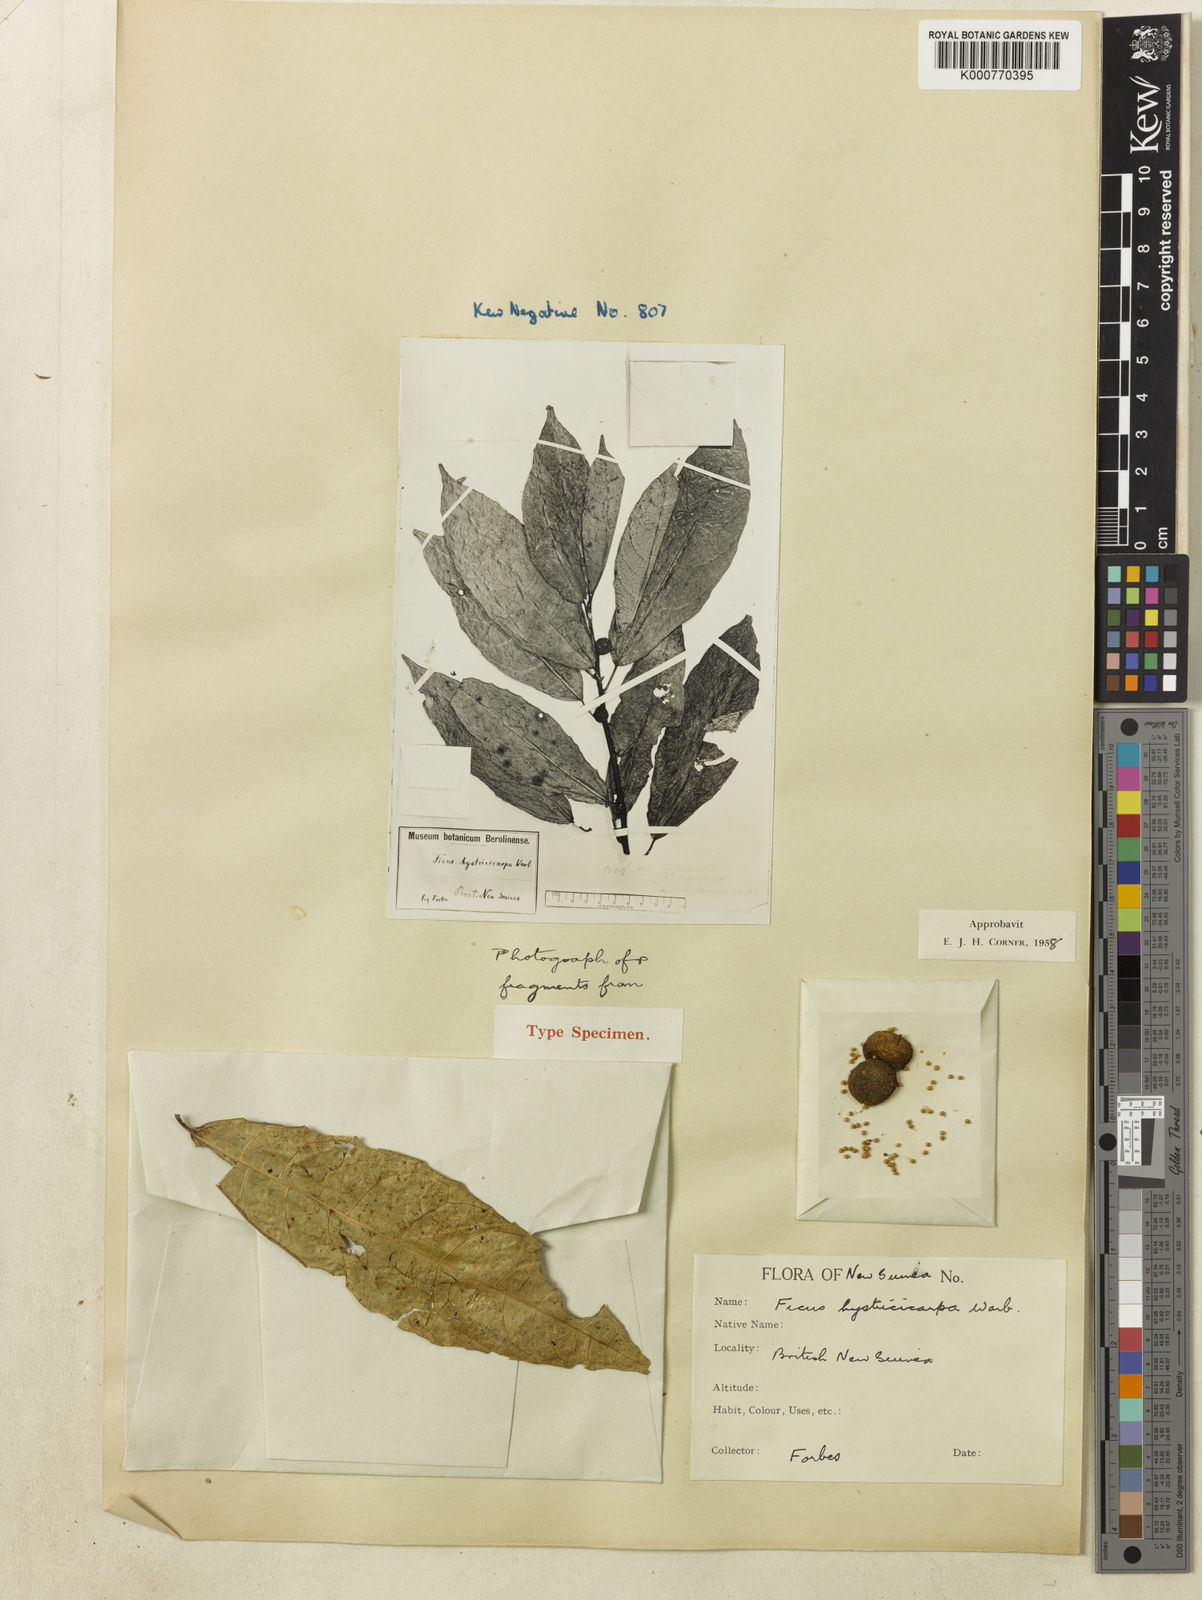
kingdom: Plantae
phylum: Tracheophyta
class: Magnoliopsida
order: Rosales
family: Moraceae
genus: Ficus
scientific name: Ficus hystricicarpa
